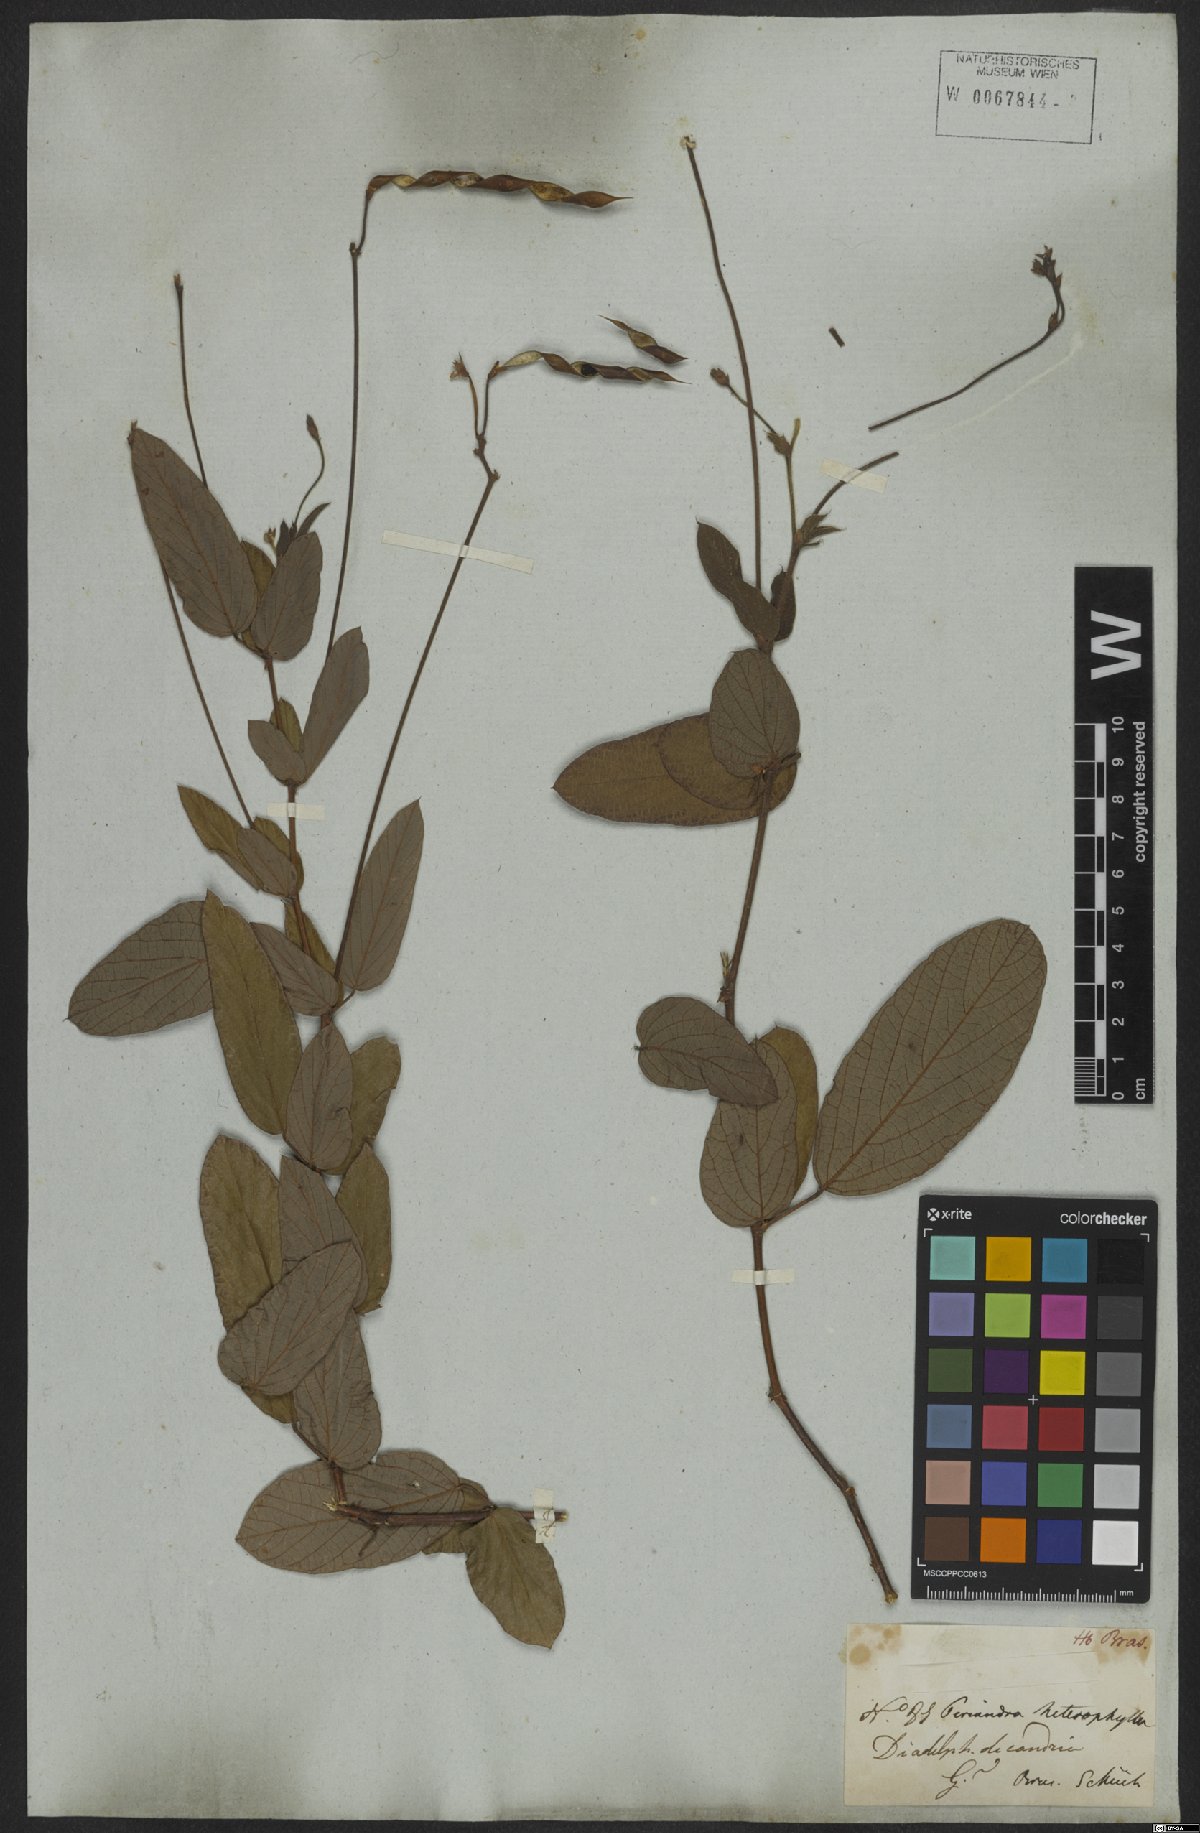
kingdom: Plantae
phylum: Tracheophyta
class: Magnoliopsida
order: Fabales
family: Fabaceae
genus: Periandra
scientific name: Periandra heterophylla
